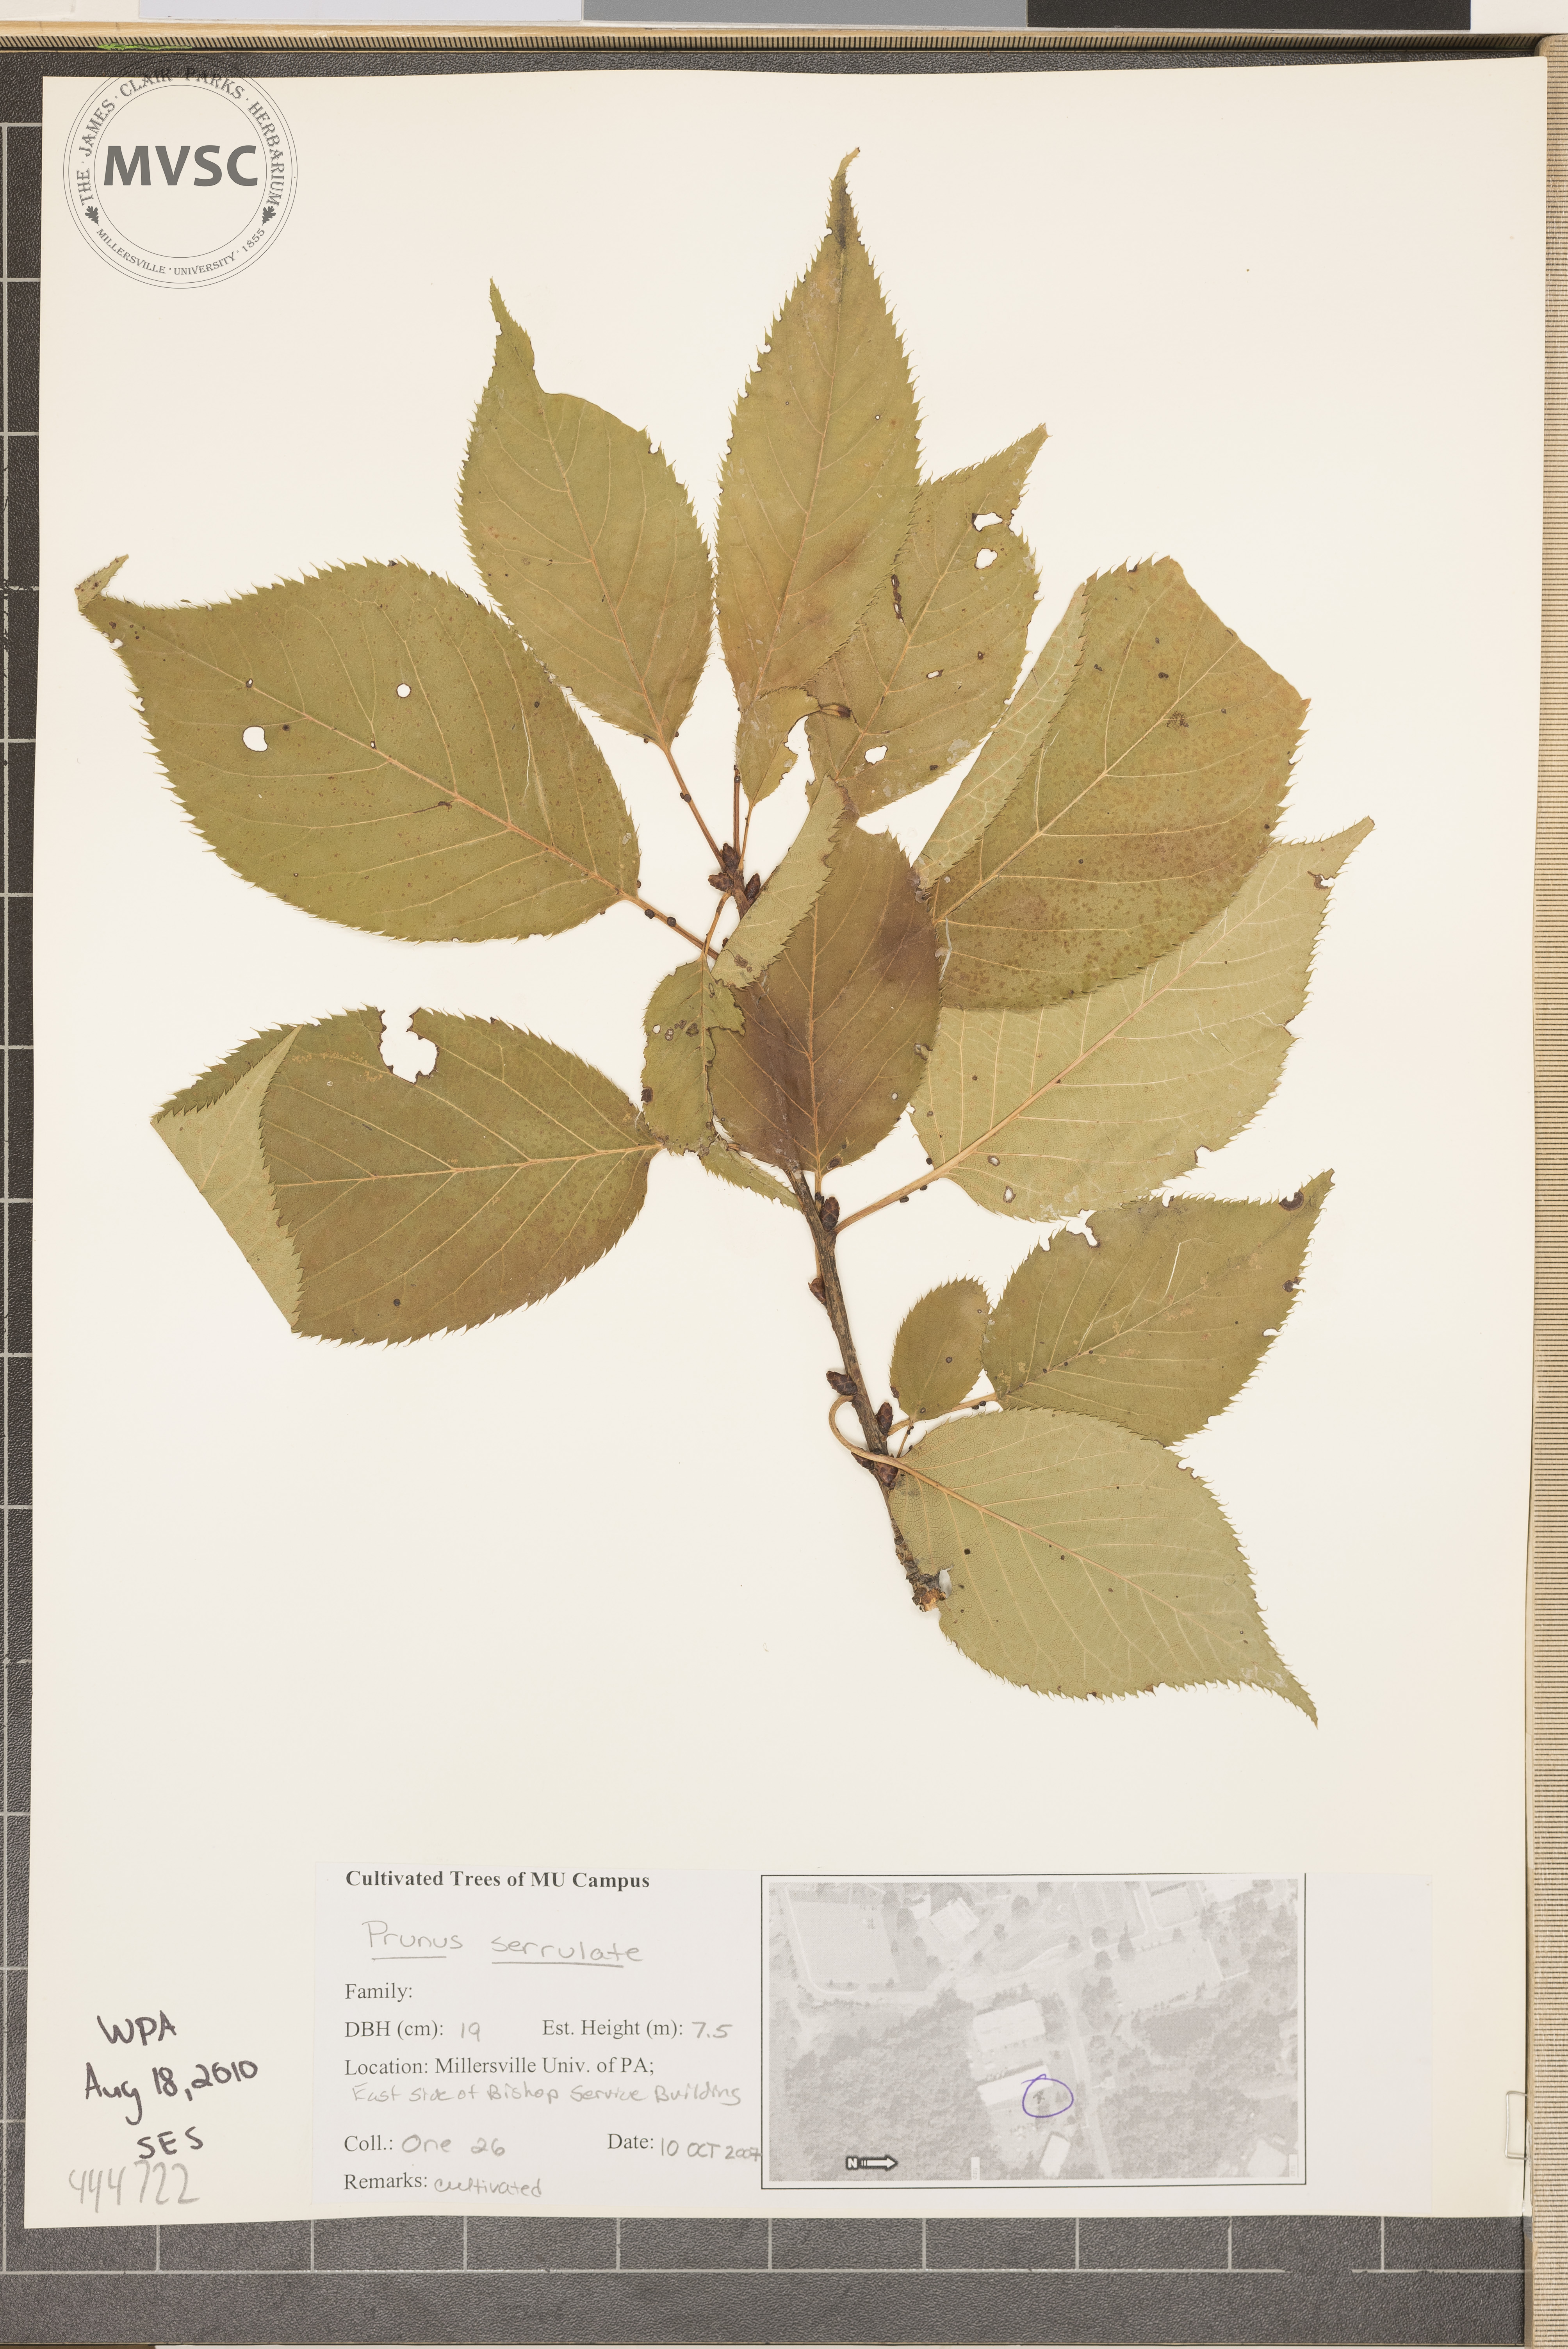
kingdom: Plantae
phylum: Tracheophyta
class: Magnoliopsida
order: Rosales
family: Rosaceae
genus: Prunus
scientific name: Prunus serrulata
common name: Japanese cherry
